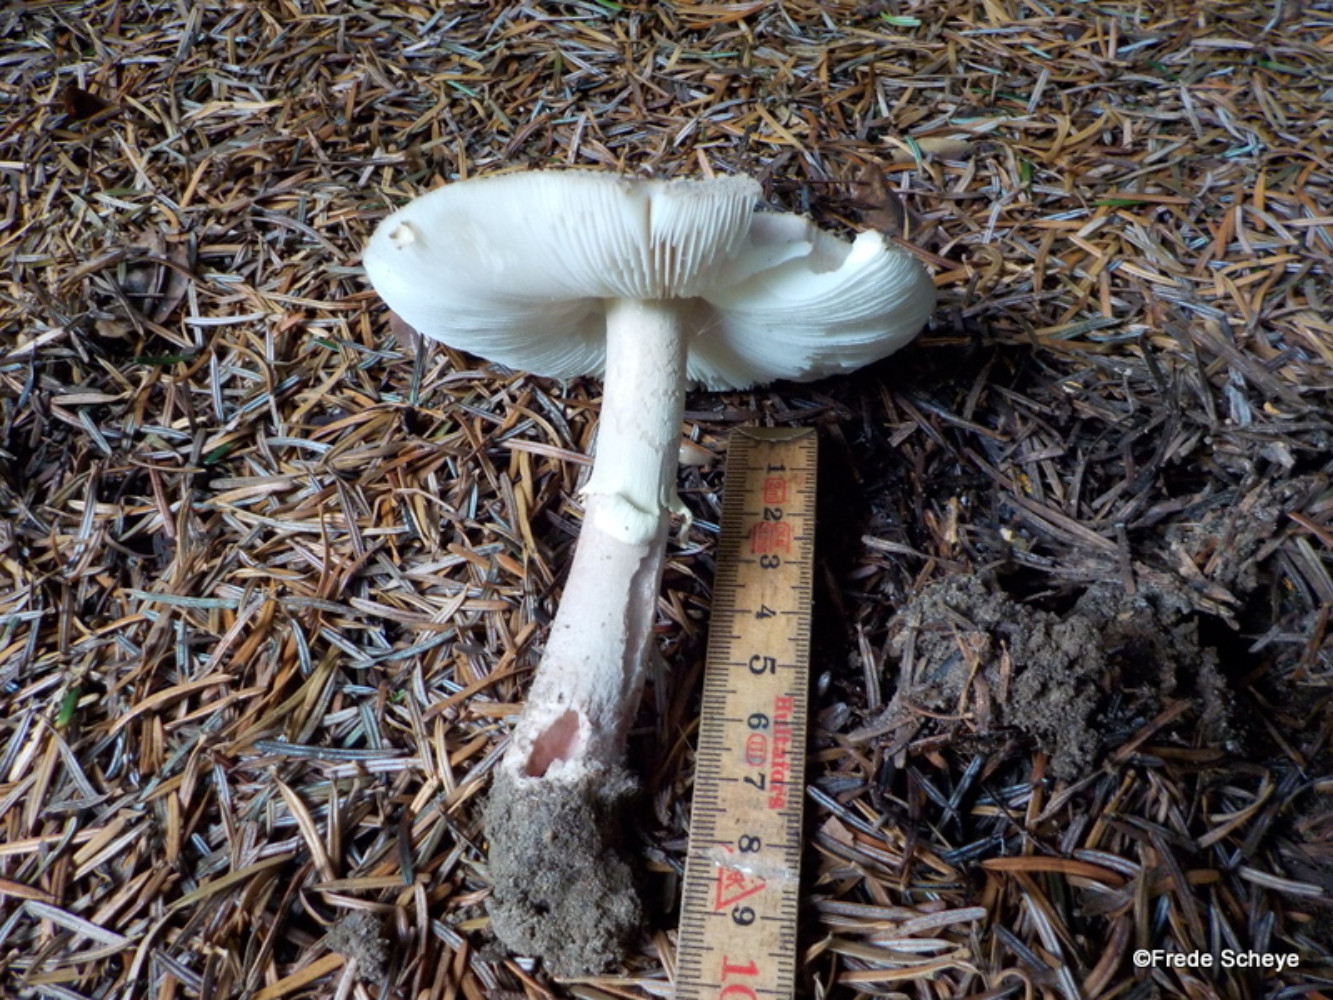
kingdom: Fungi
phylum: Basidiomycota
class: Agaricomycetes
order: Agaricales
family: Amanitaceae
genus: Amanita
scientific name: Amanita
